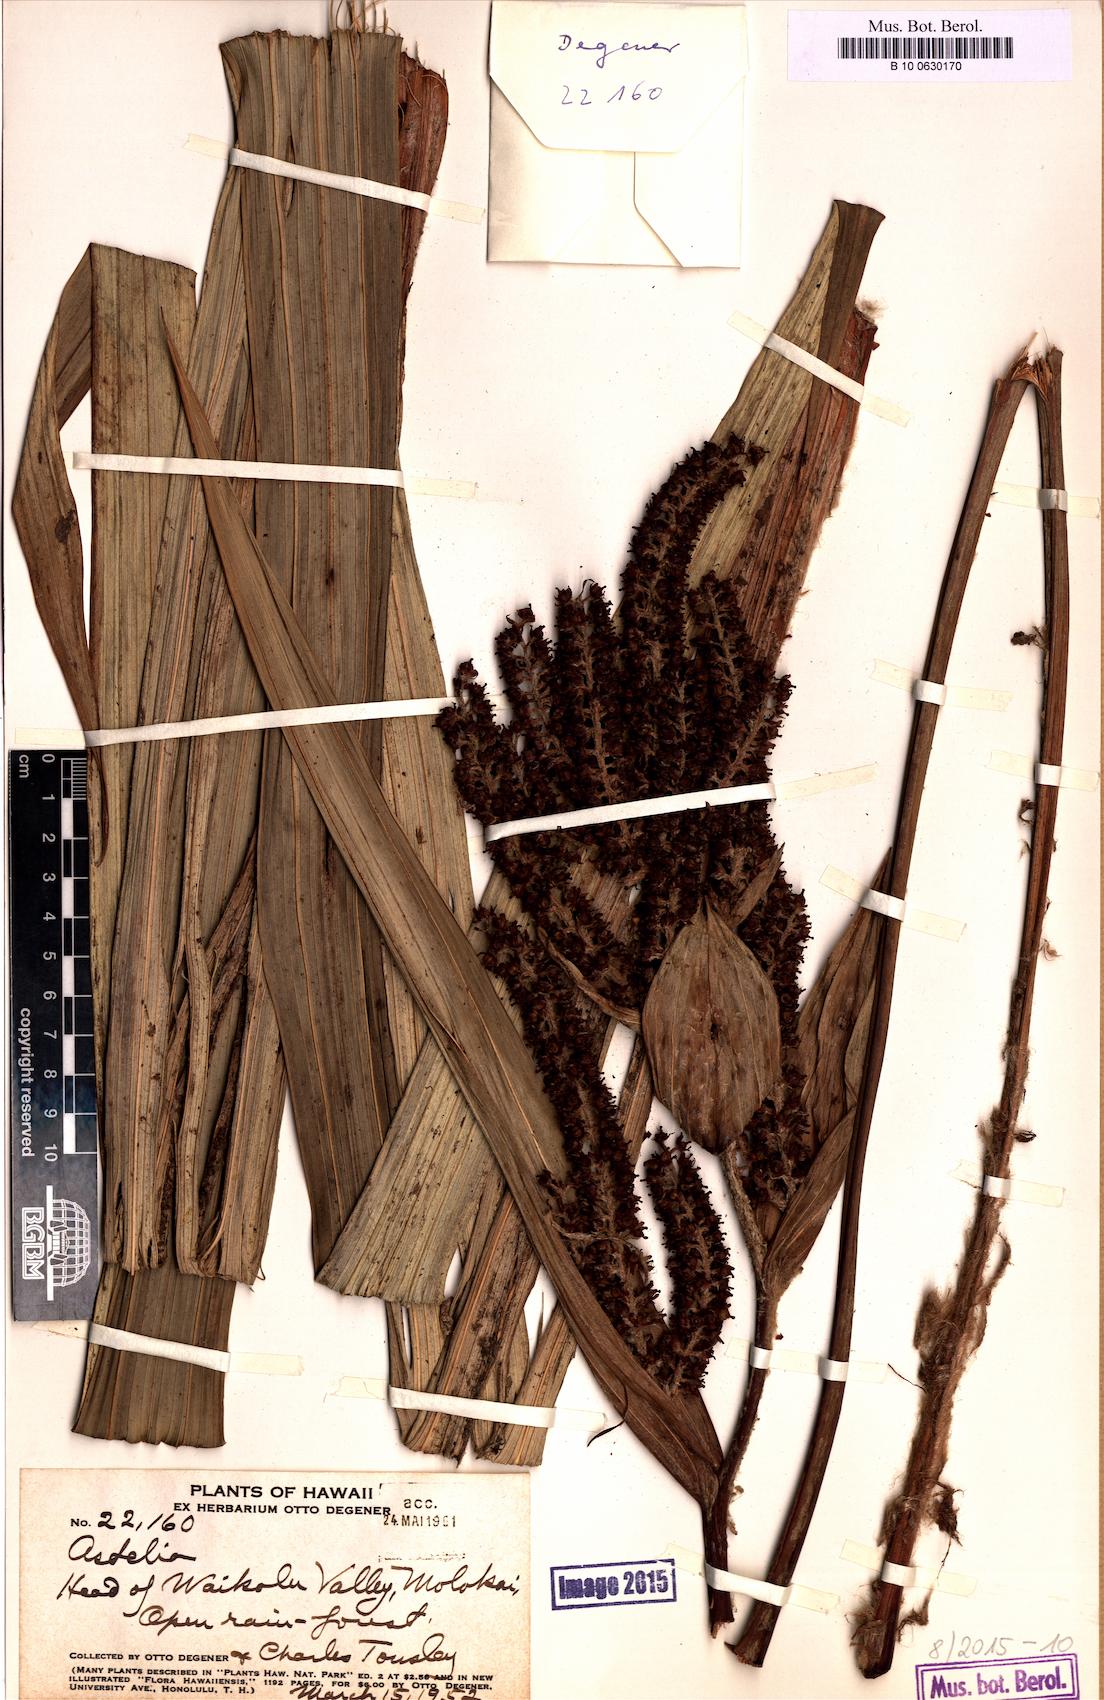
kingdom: Plantae
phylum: Tracheophyta
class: Liliopsida
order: Asparagales
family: Asteliaceae
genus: Astelia
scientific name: Astelia
